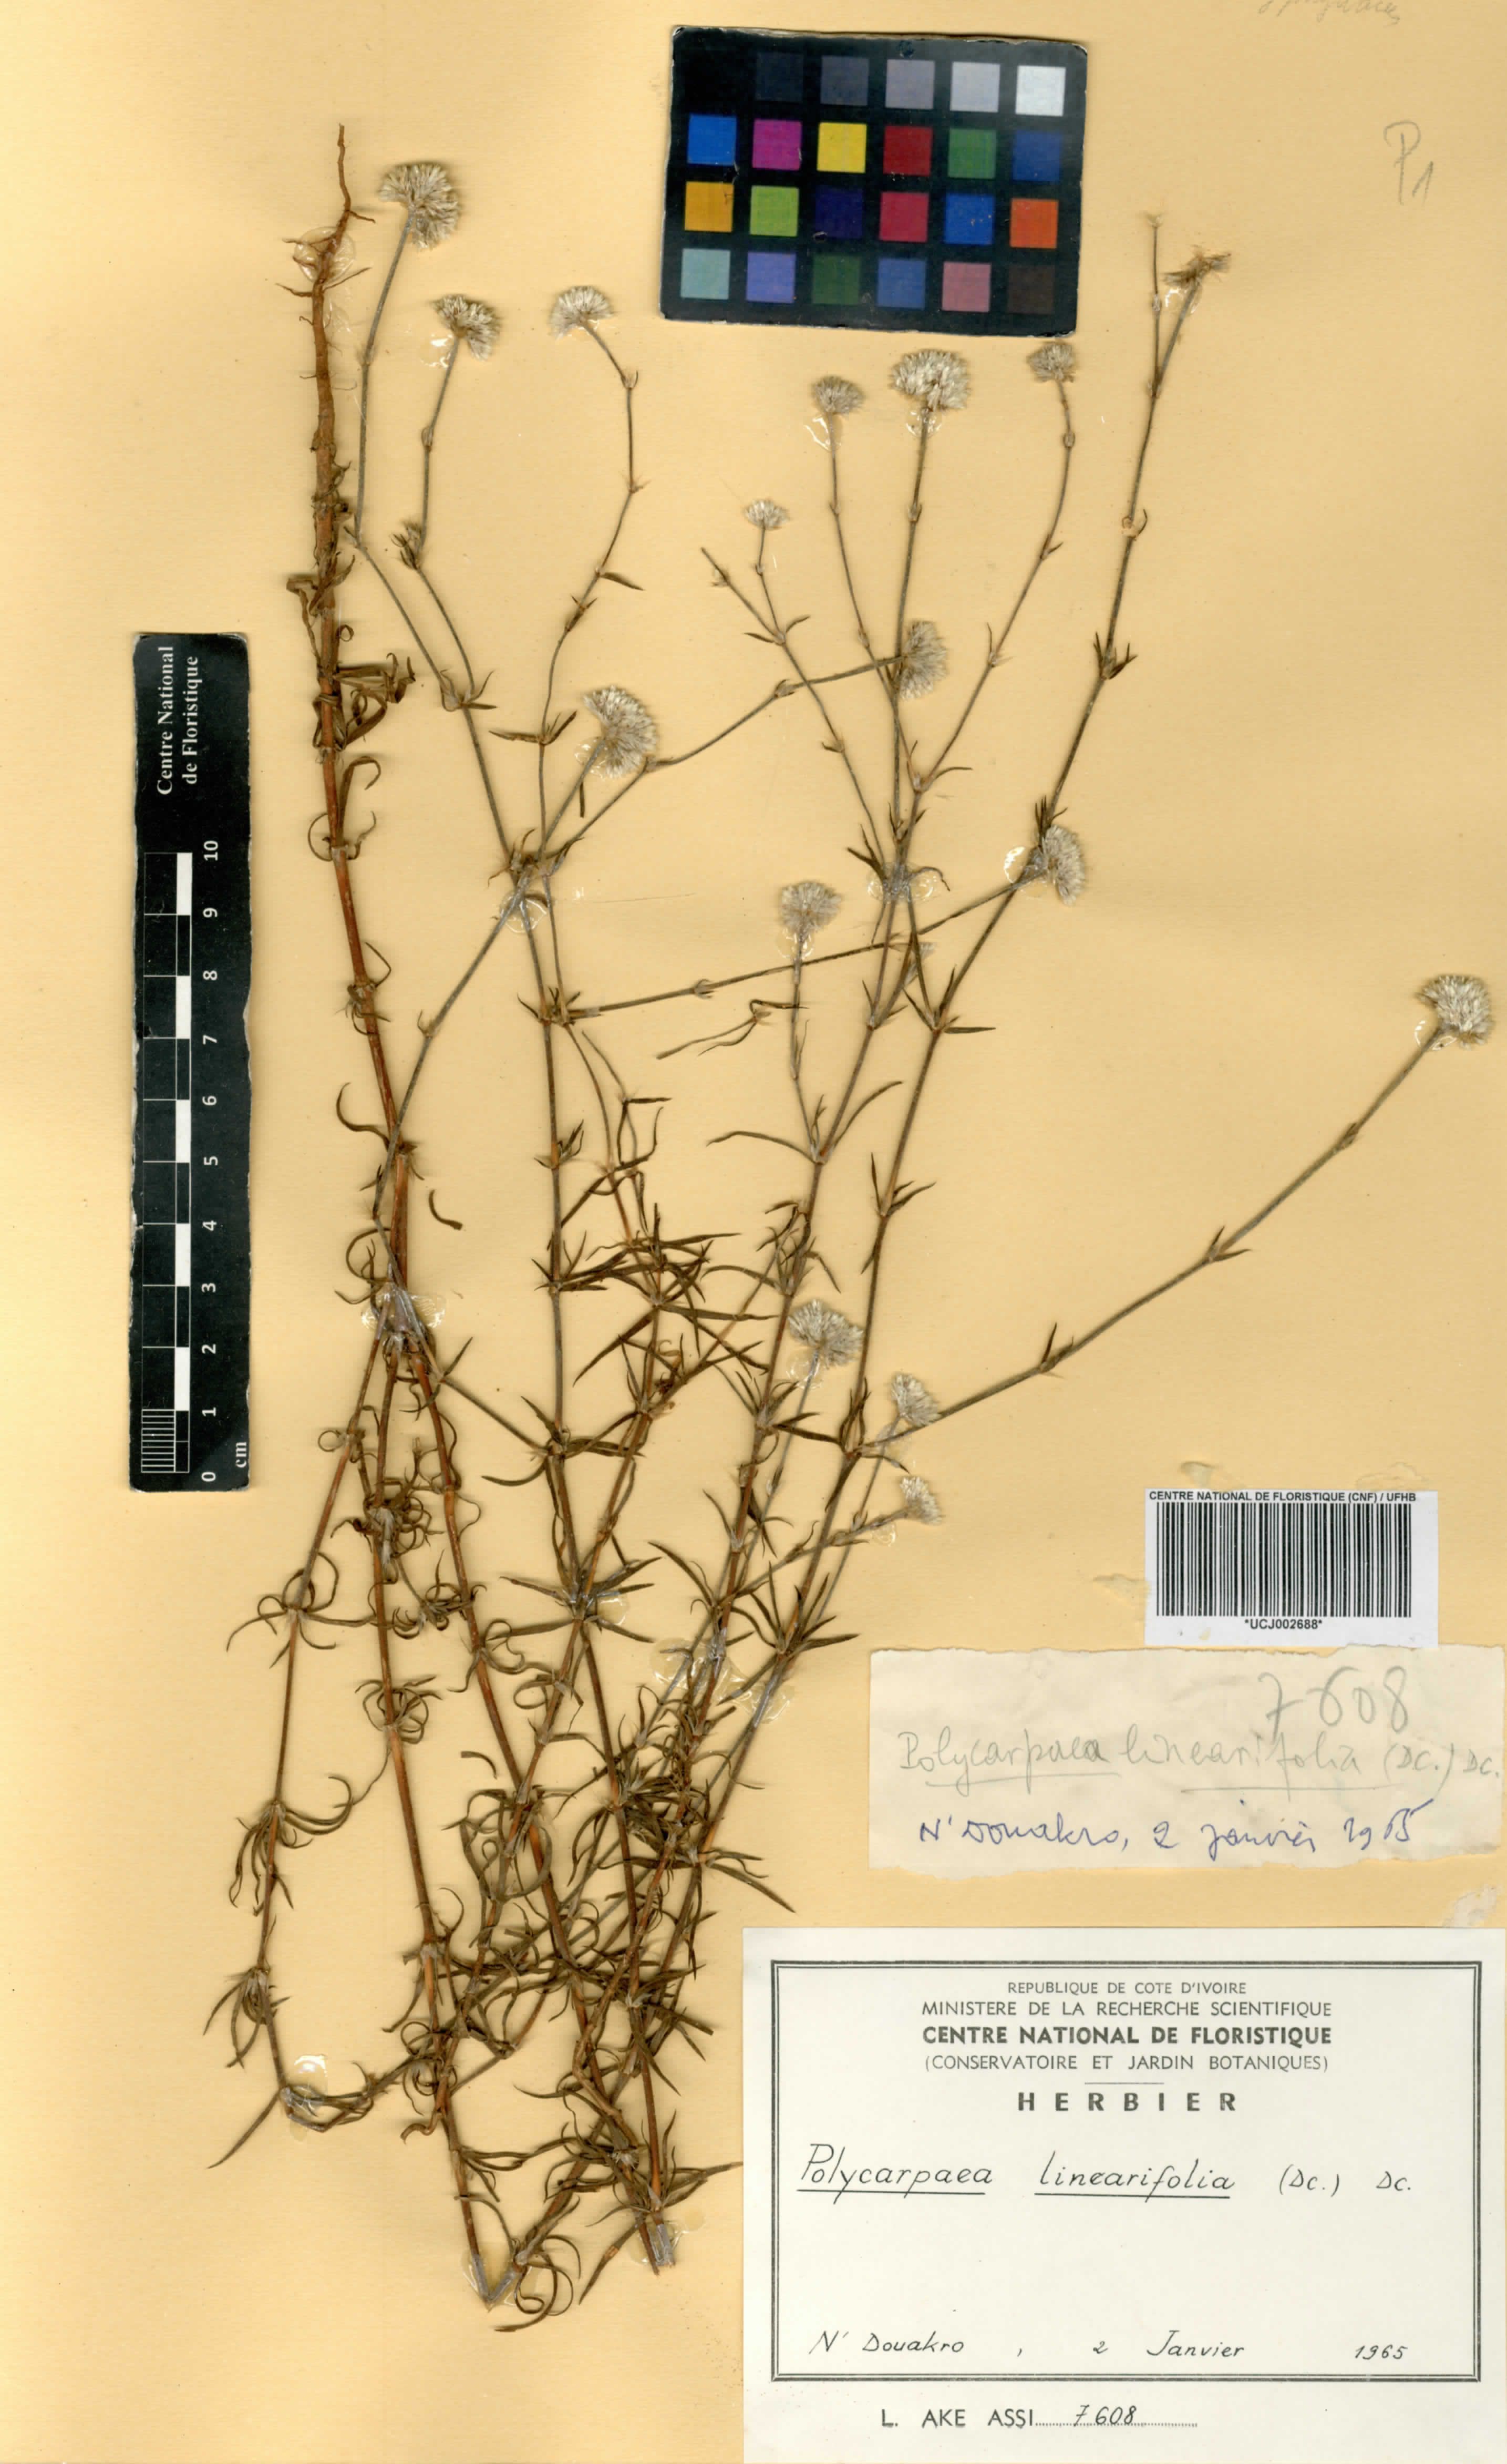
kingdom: Plantae
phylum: Tracheophyta
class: Magnoliopsida
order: Caryophyllales
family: Caryophyllaceae
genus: Polycarpaea
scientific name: Polycarpaea linearifolia
